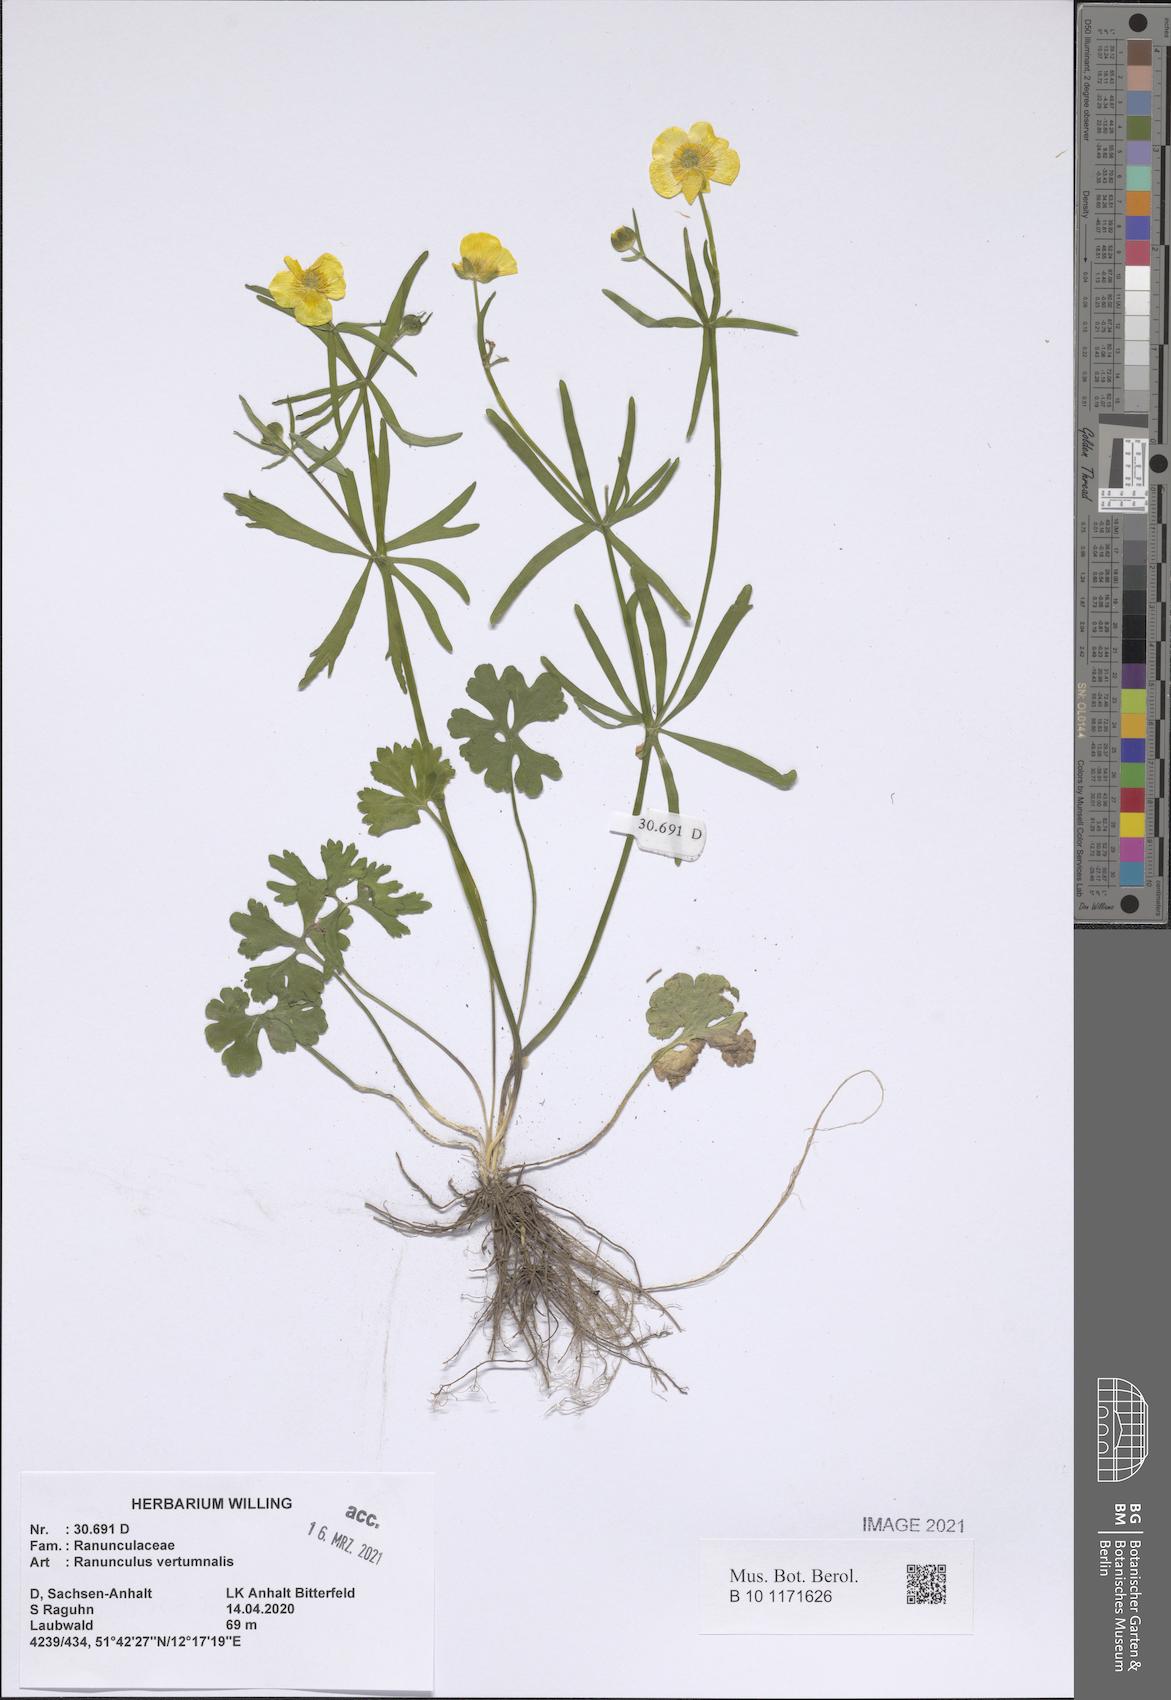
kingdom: Plantae
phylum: Tracheophyta
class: Magnoliopsida
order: Ranunculales
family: Ranunculaceae
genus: Ranunculus
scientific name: Ranunculus vertumnalis
